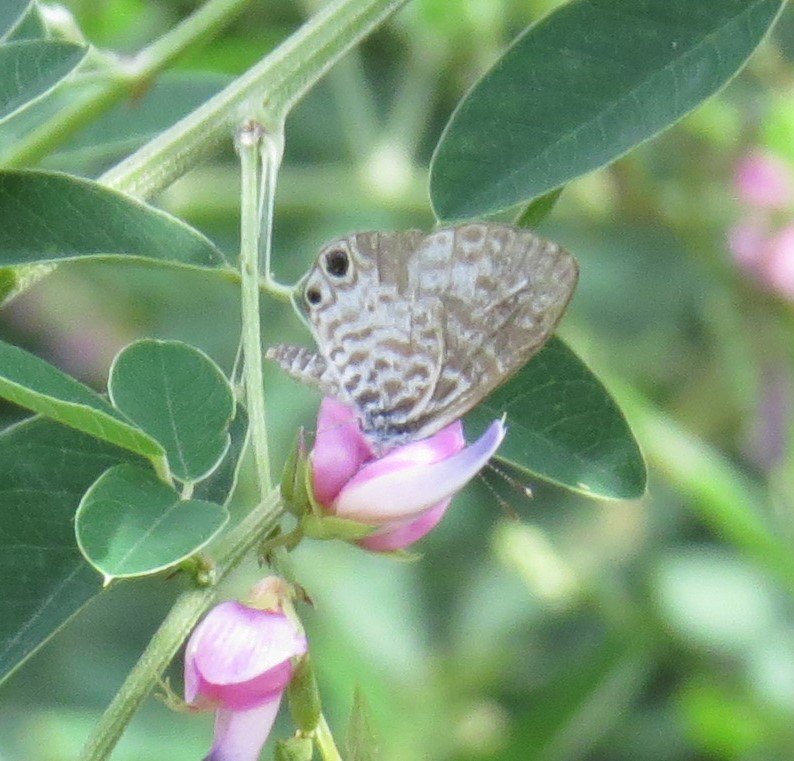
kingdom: Animalia
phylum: Arthropoda
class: Insecta
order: Lepidoptera
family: Lycaenidae
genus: Leptotes
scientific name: Leptotes cassius
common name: Cassius Blue
